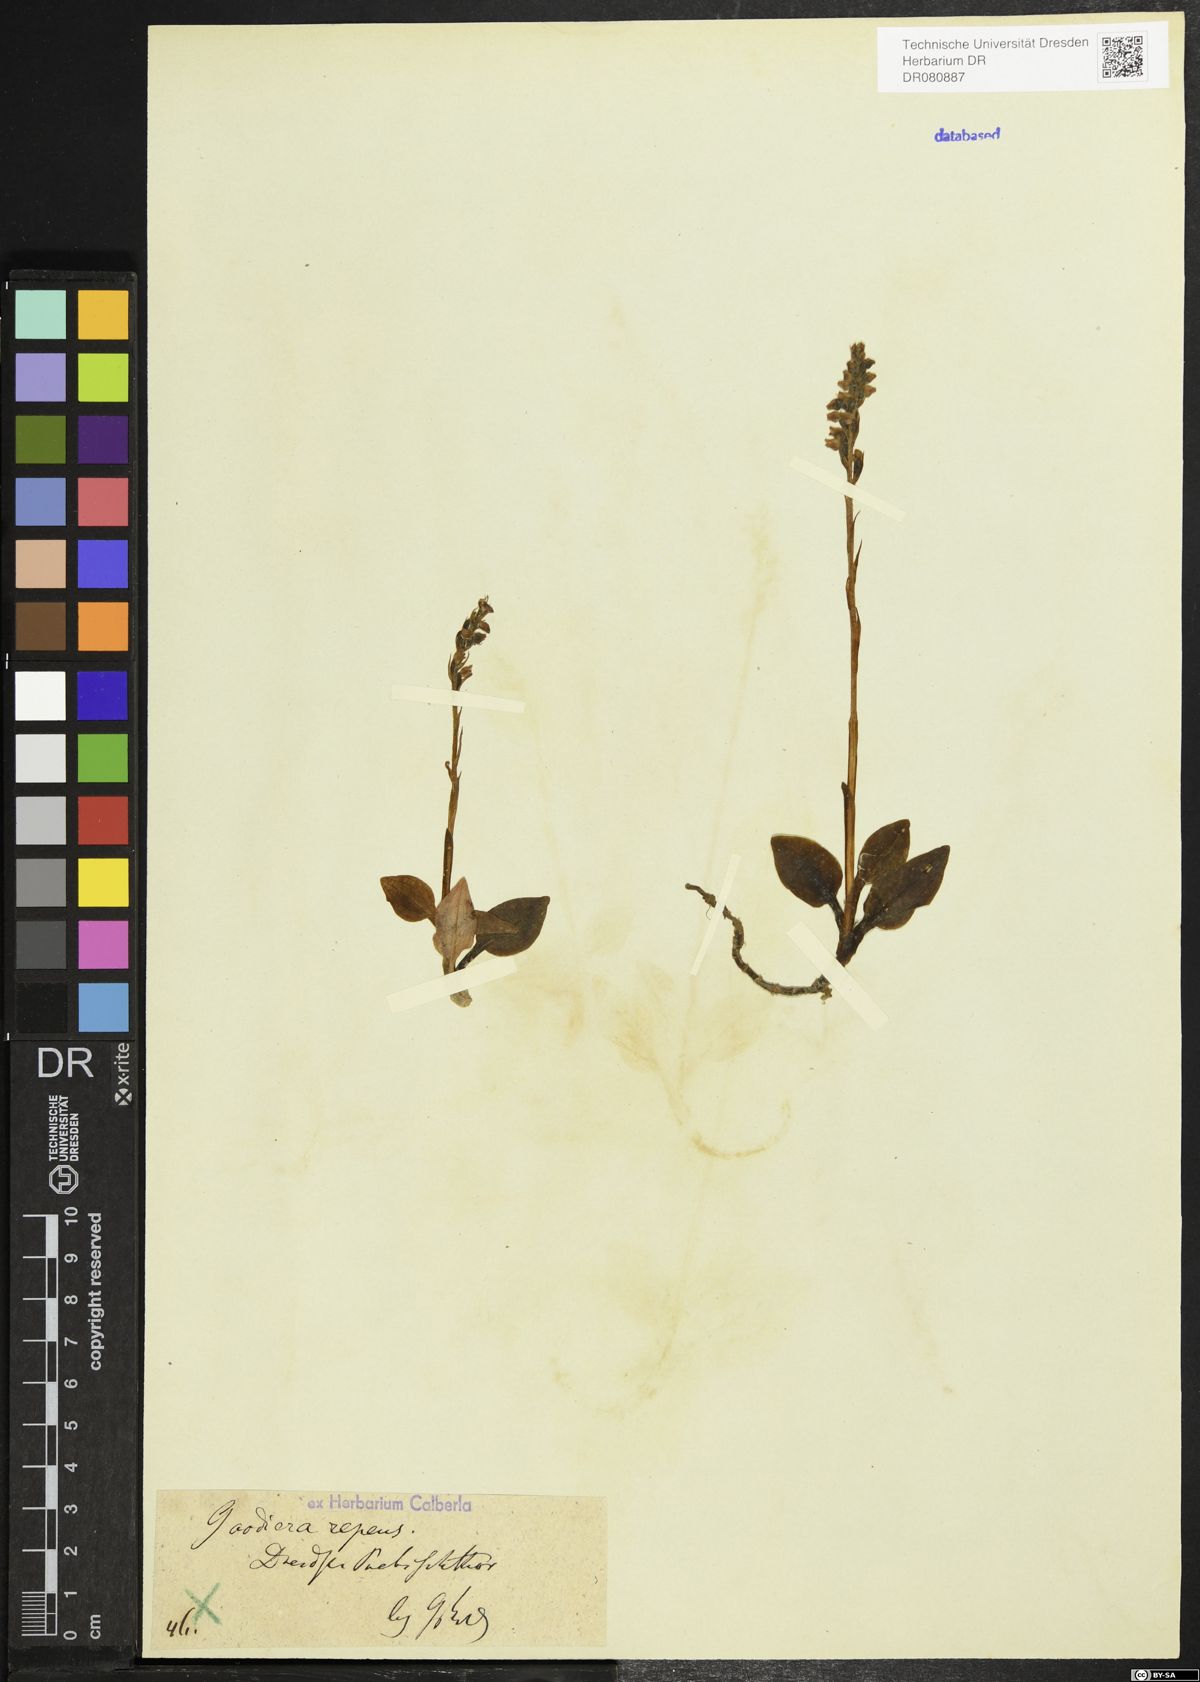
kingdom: Plantae
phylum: Tracheophyta
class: Liliopsida
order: Asparagales
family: Orchidaceae
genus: Goodyera
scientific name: Goodyera repens
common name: Creeping lady's-tresses
